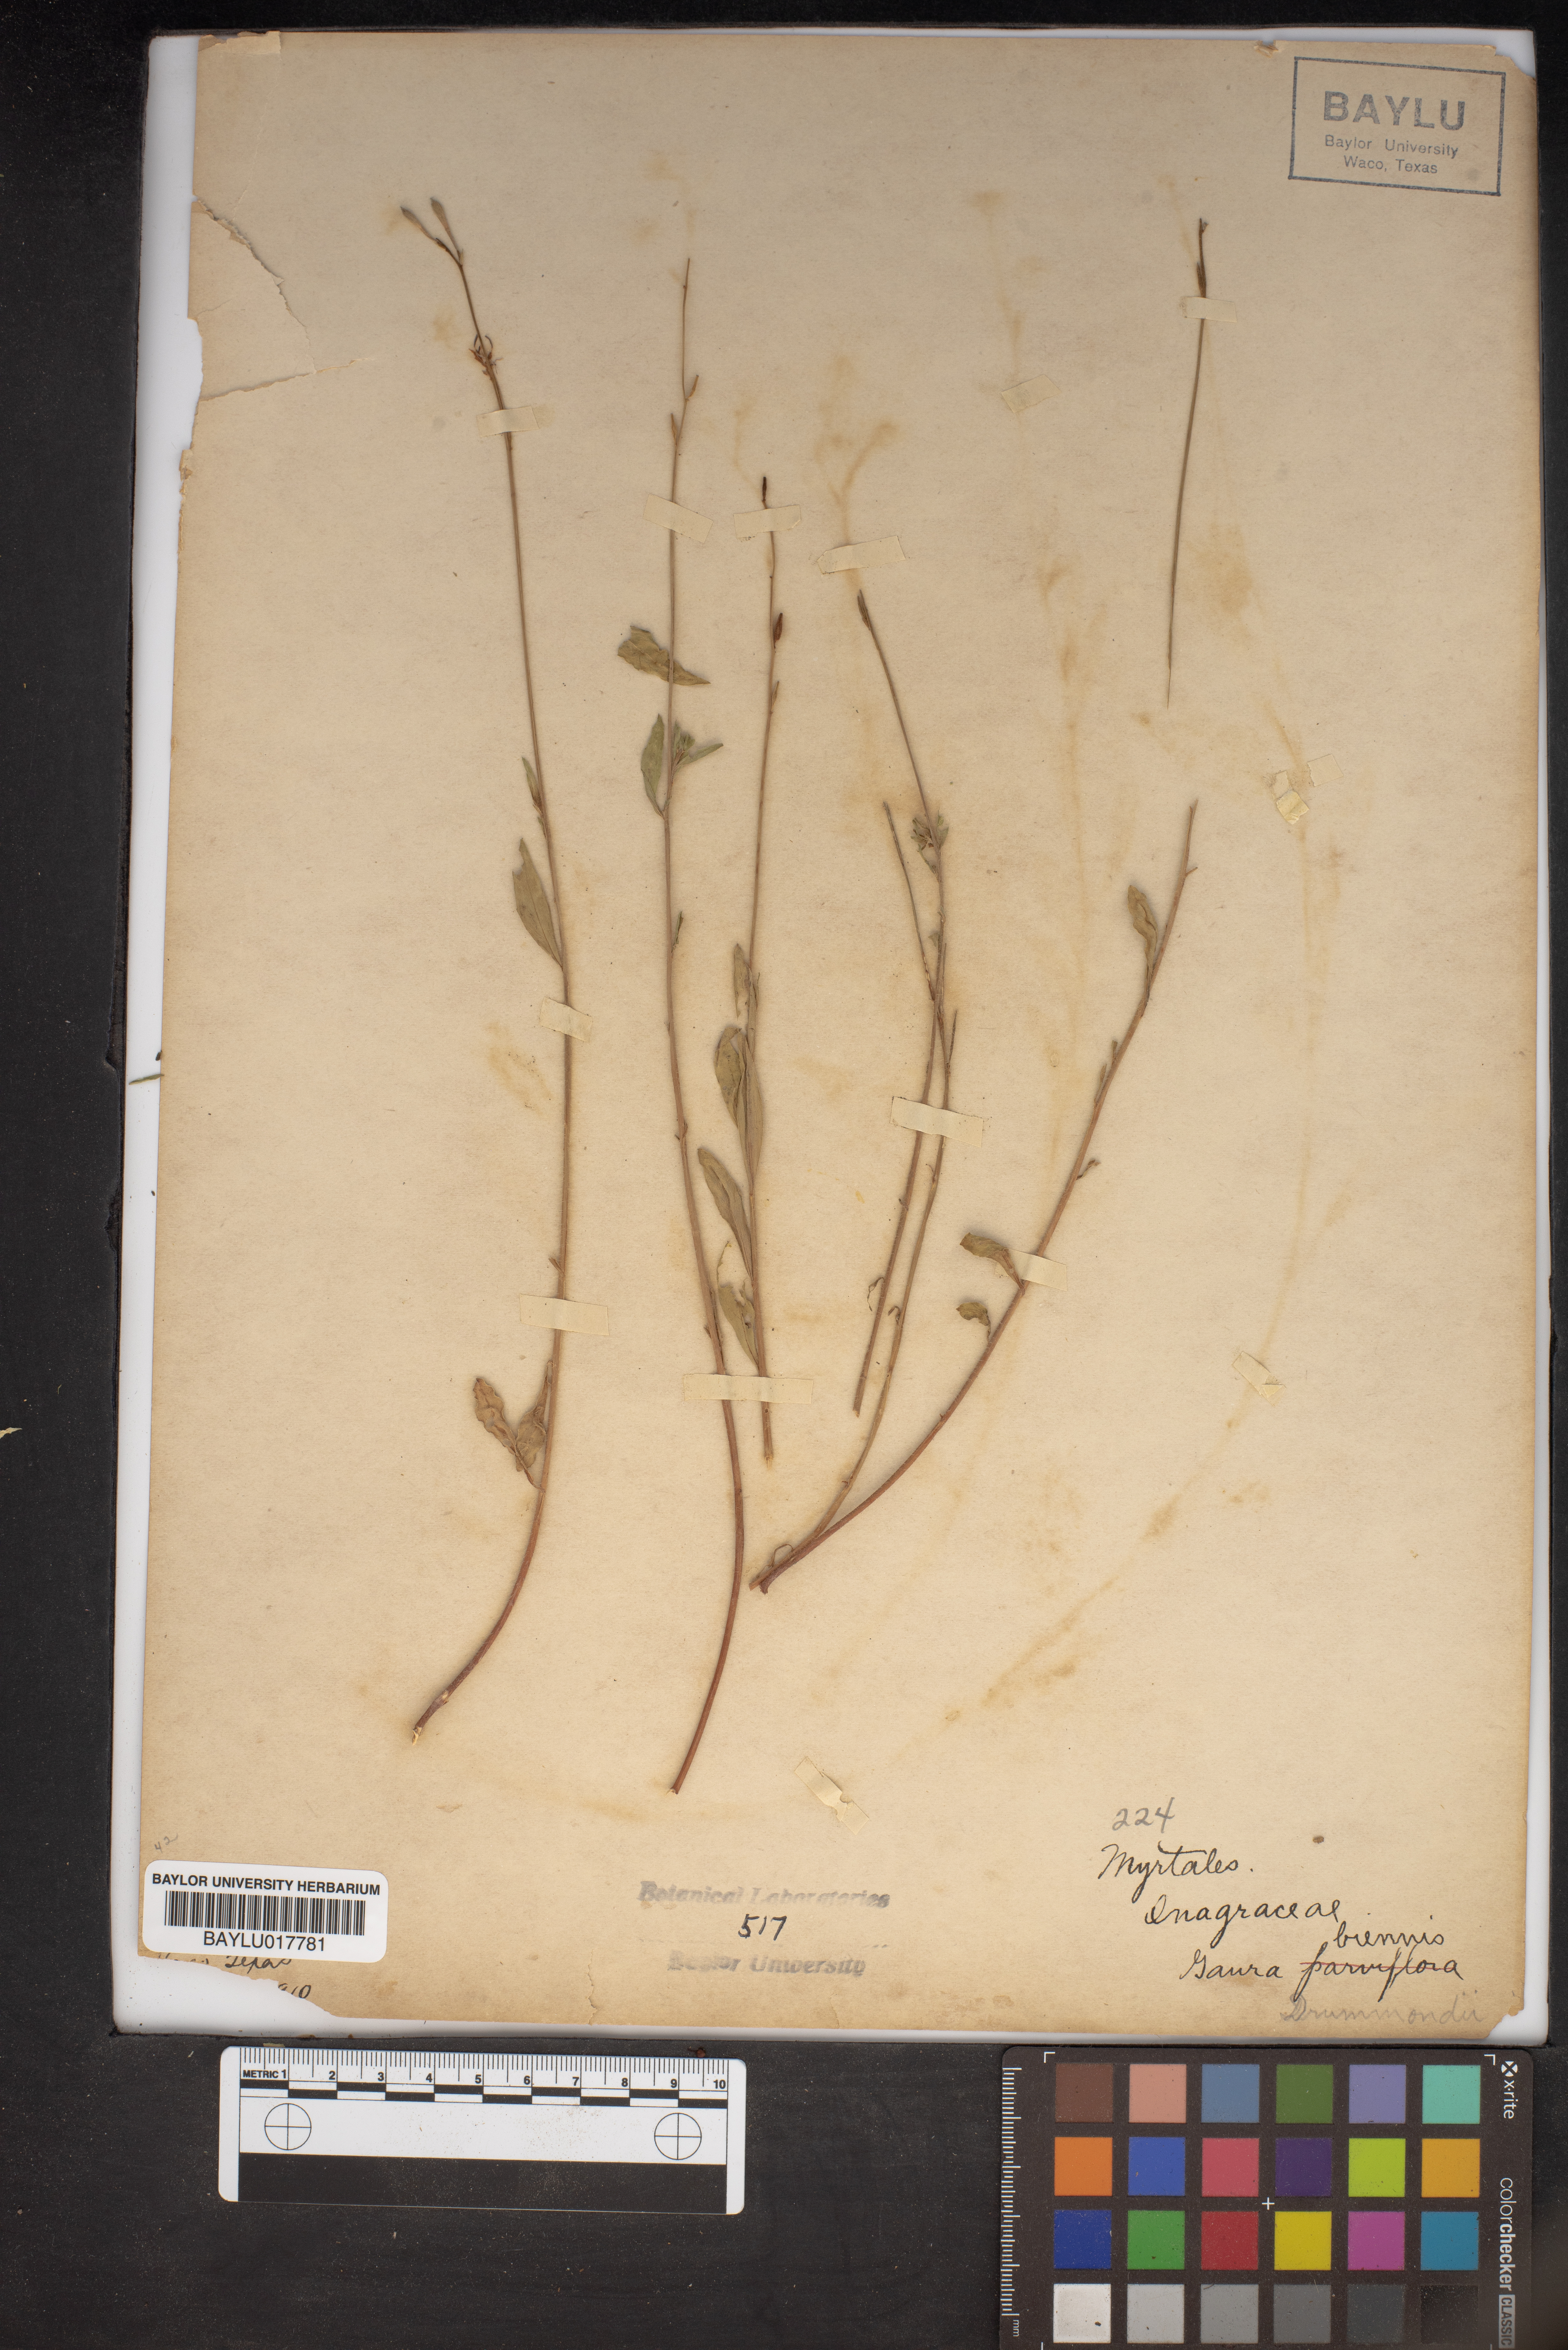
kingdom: Plantae
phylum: Tracheophyta
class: Magnoliopsida
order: Myrtales
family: Onagraceae
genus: Oenothera
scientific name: Oenothera gaura
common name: Biennial beeblossom
